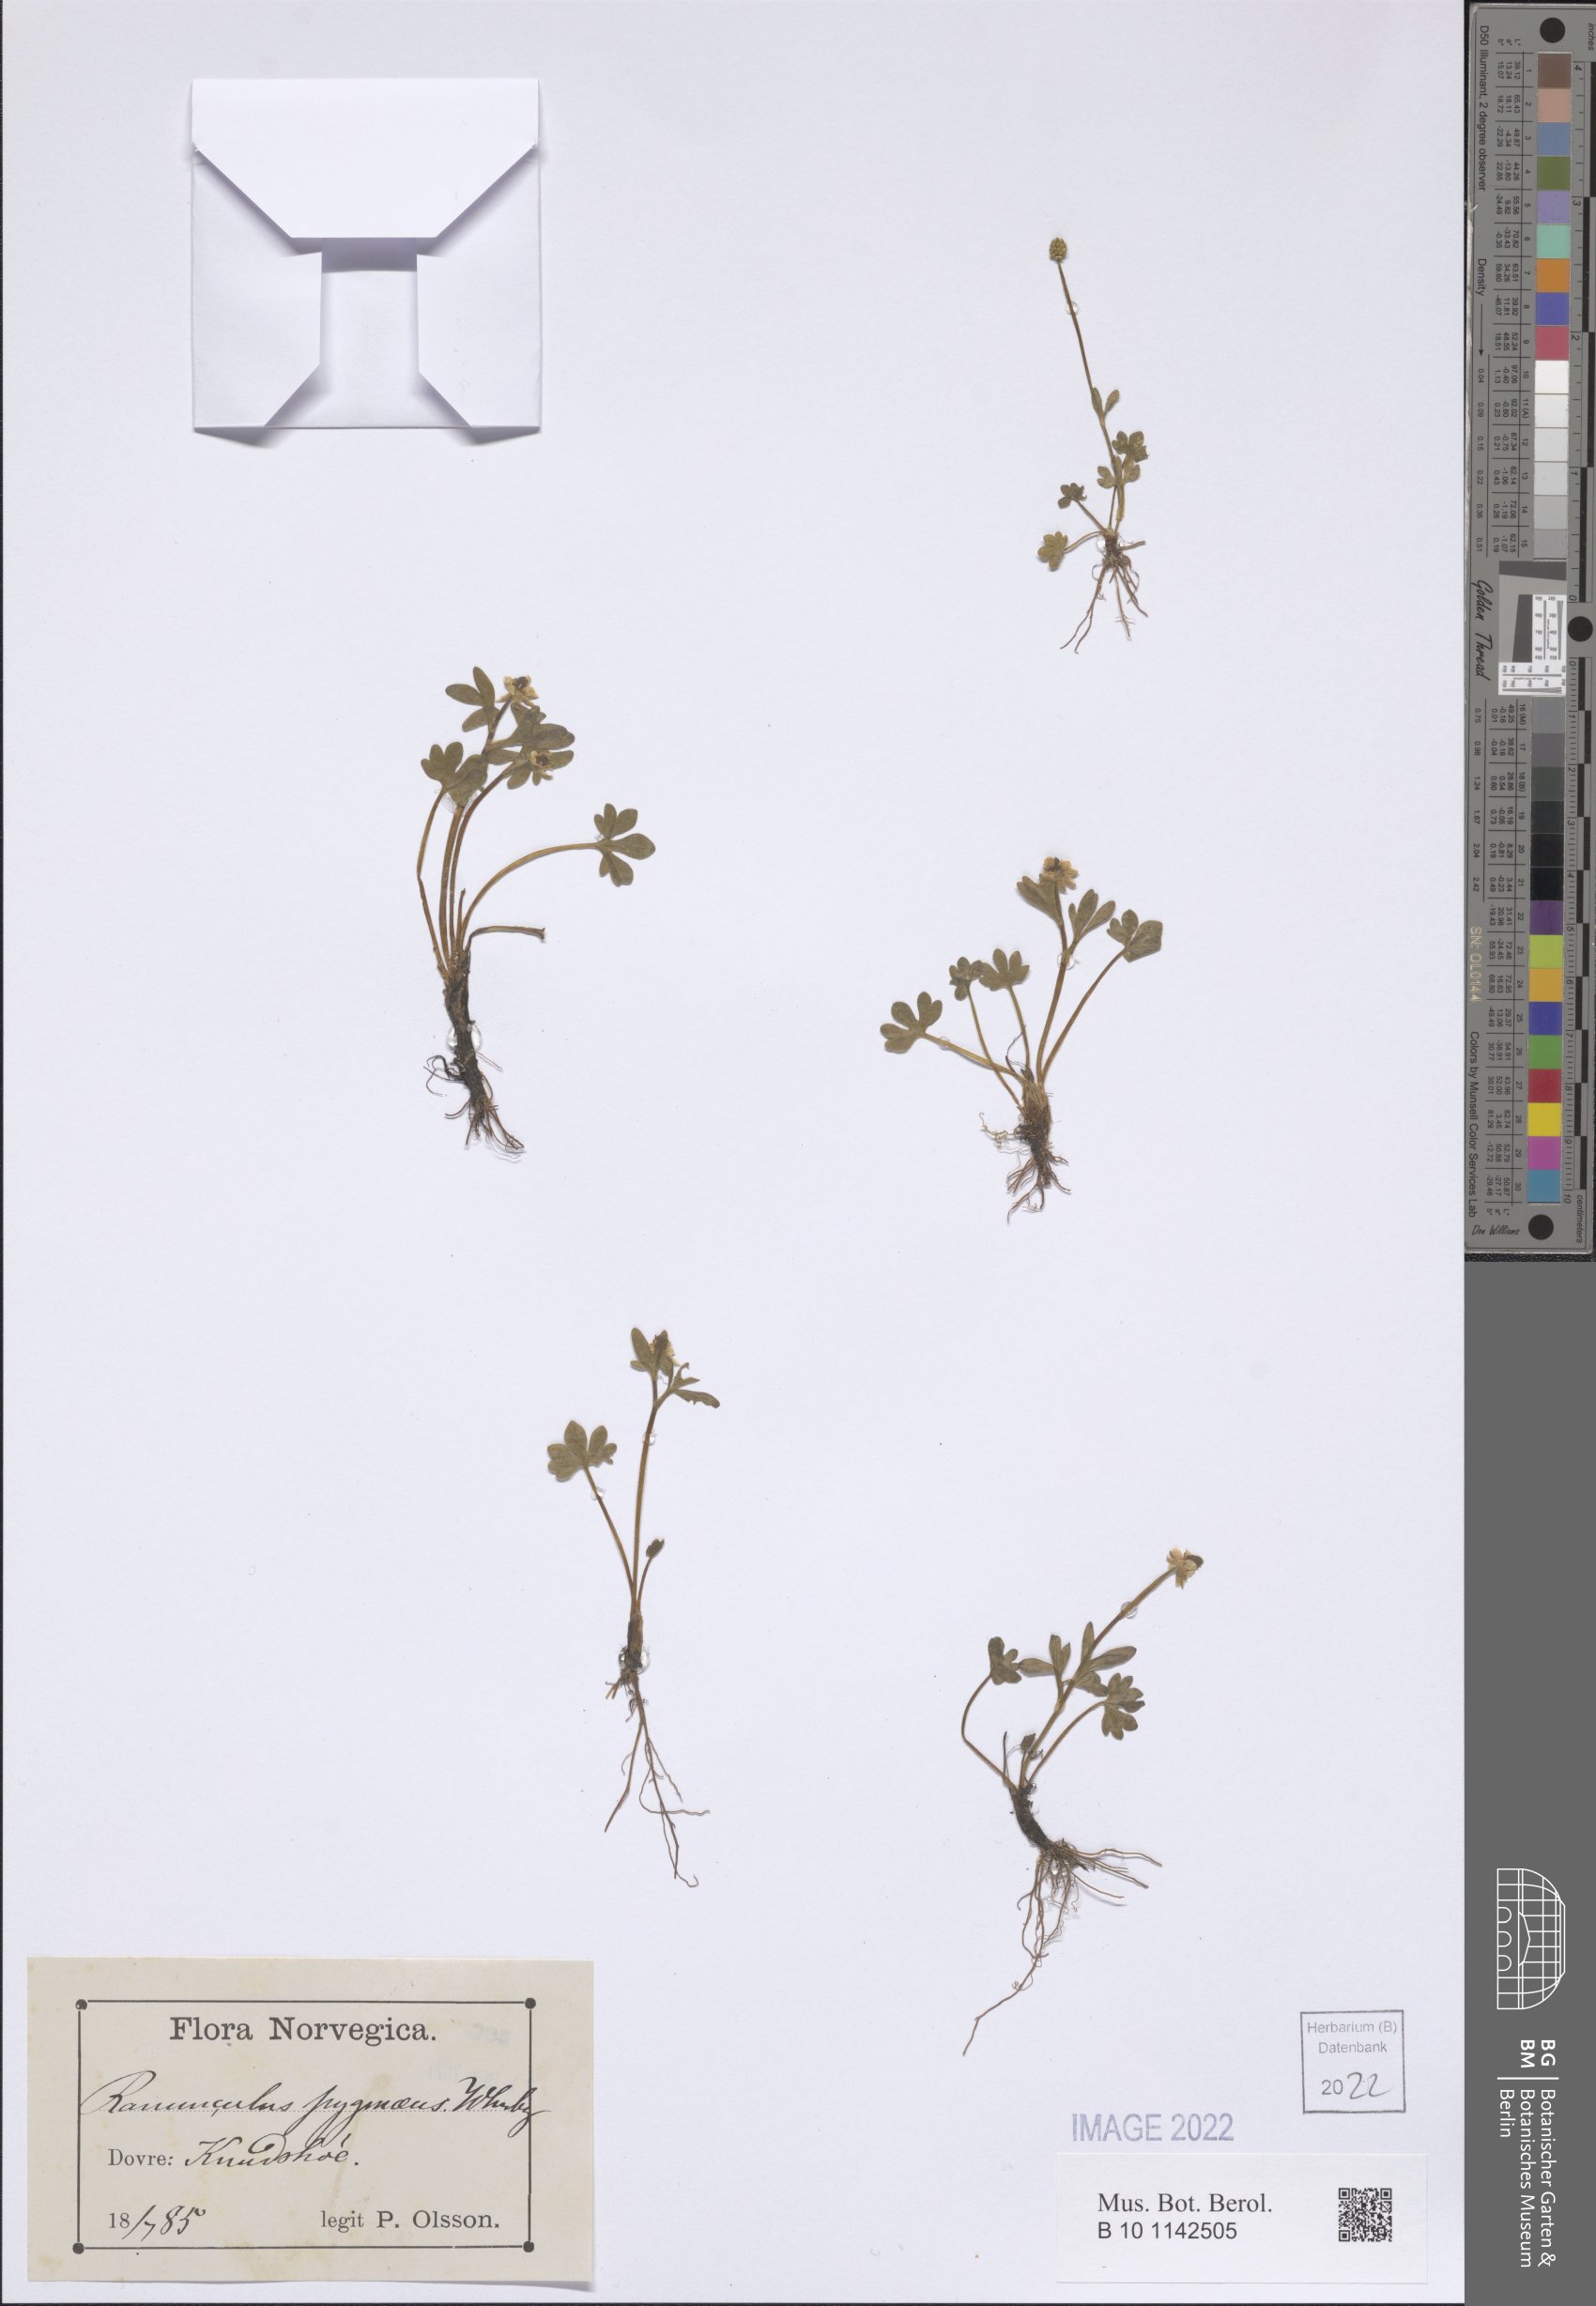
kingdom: Plantae
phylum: Tracheophyta
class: Magnoliopsida
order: Ranunculales
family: Ranunculaceae
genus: Ranunculus
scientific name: Ranunculus pygmaeus
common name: Dwarf buttercup
